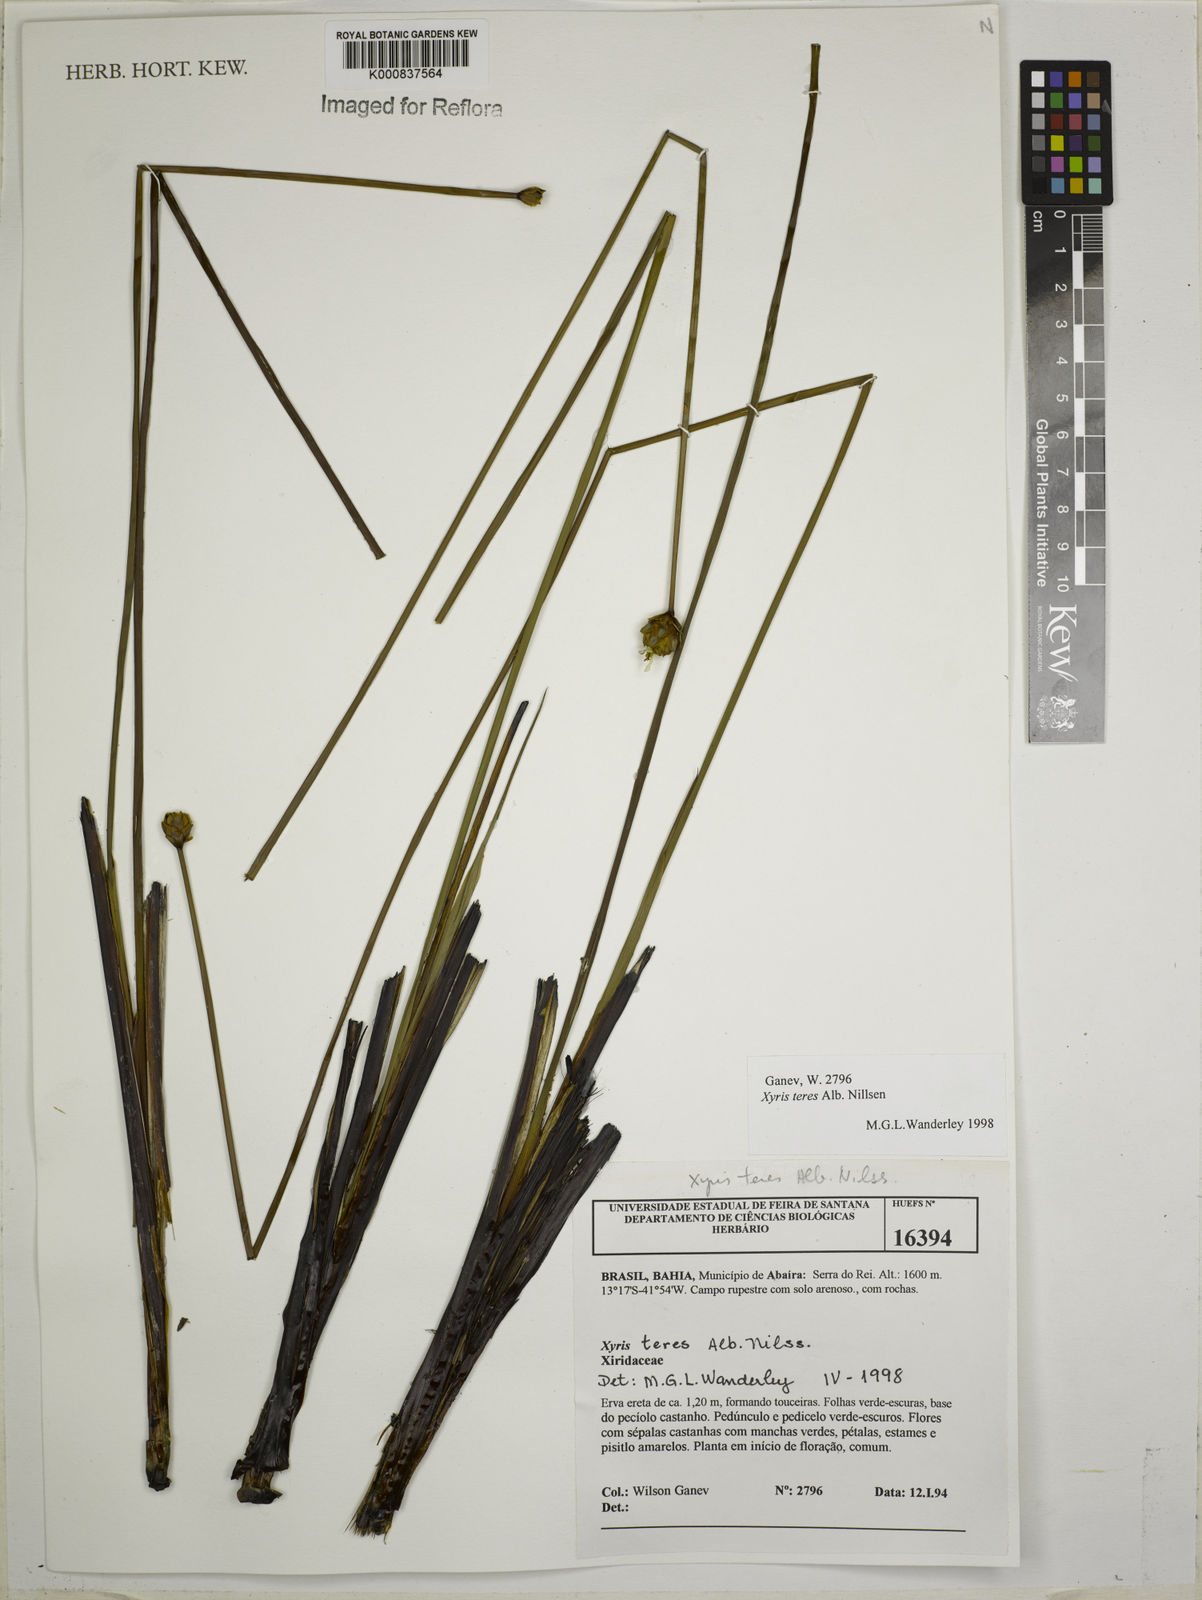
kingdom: Plantae
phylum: Tracheophyta
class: Liliopsida
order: Poales
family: Xyridaceae
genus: Xyris
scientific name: Xyris teres
